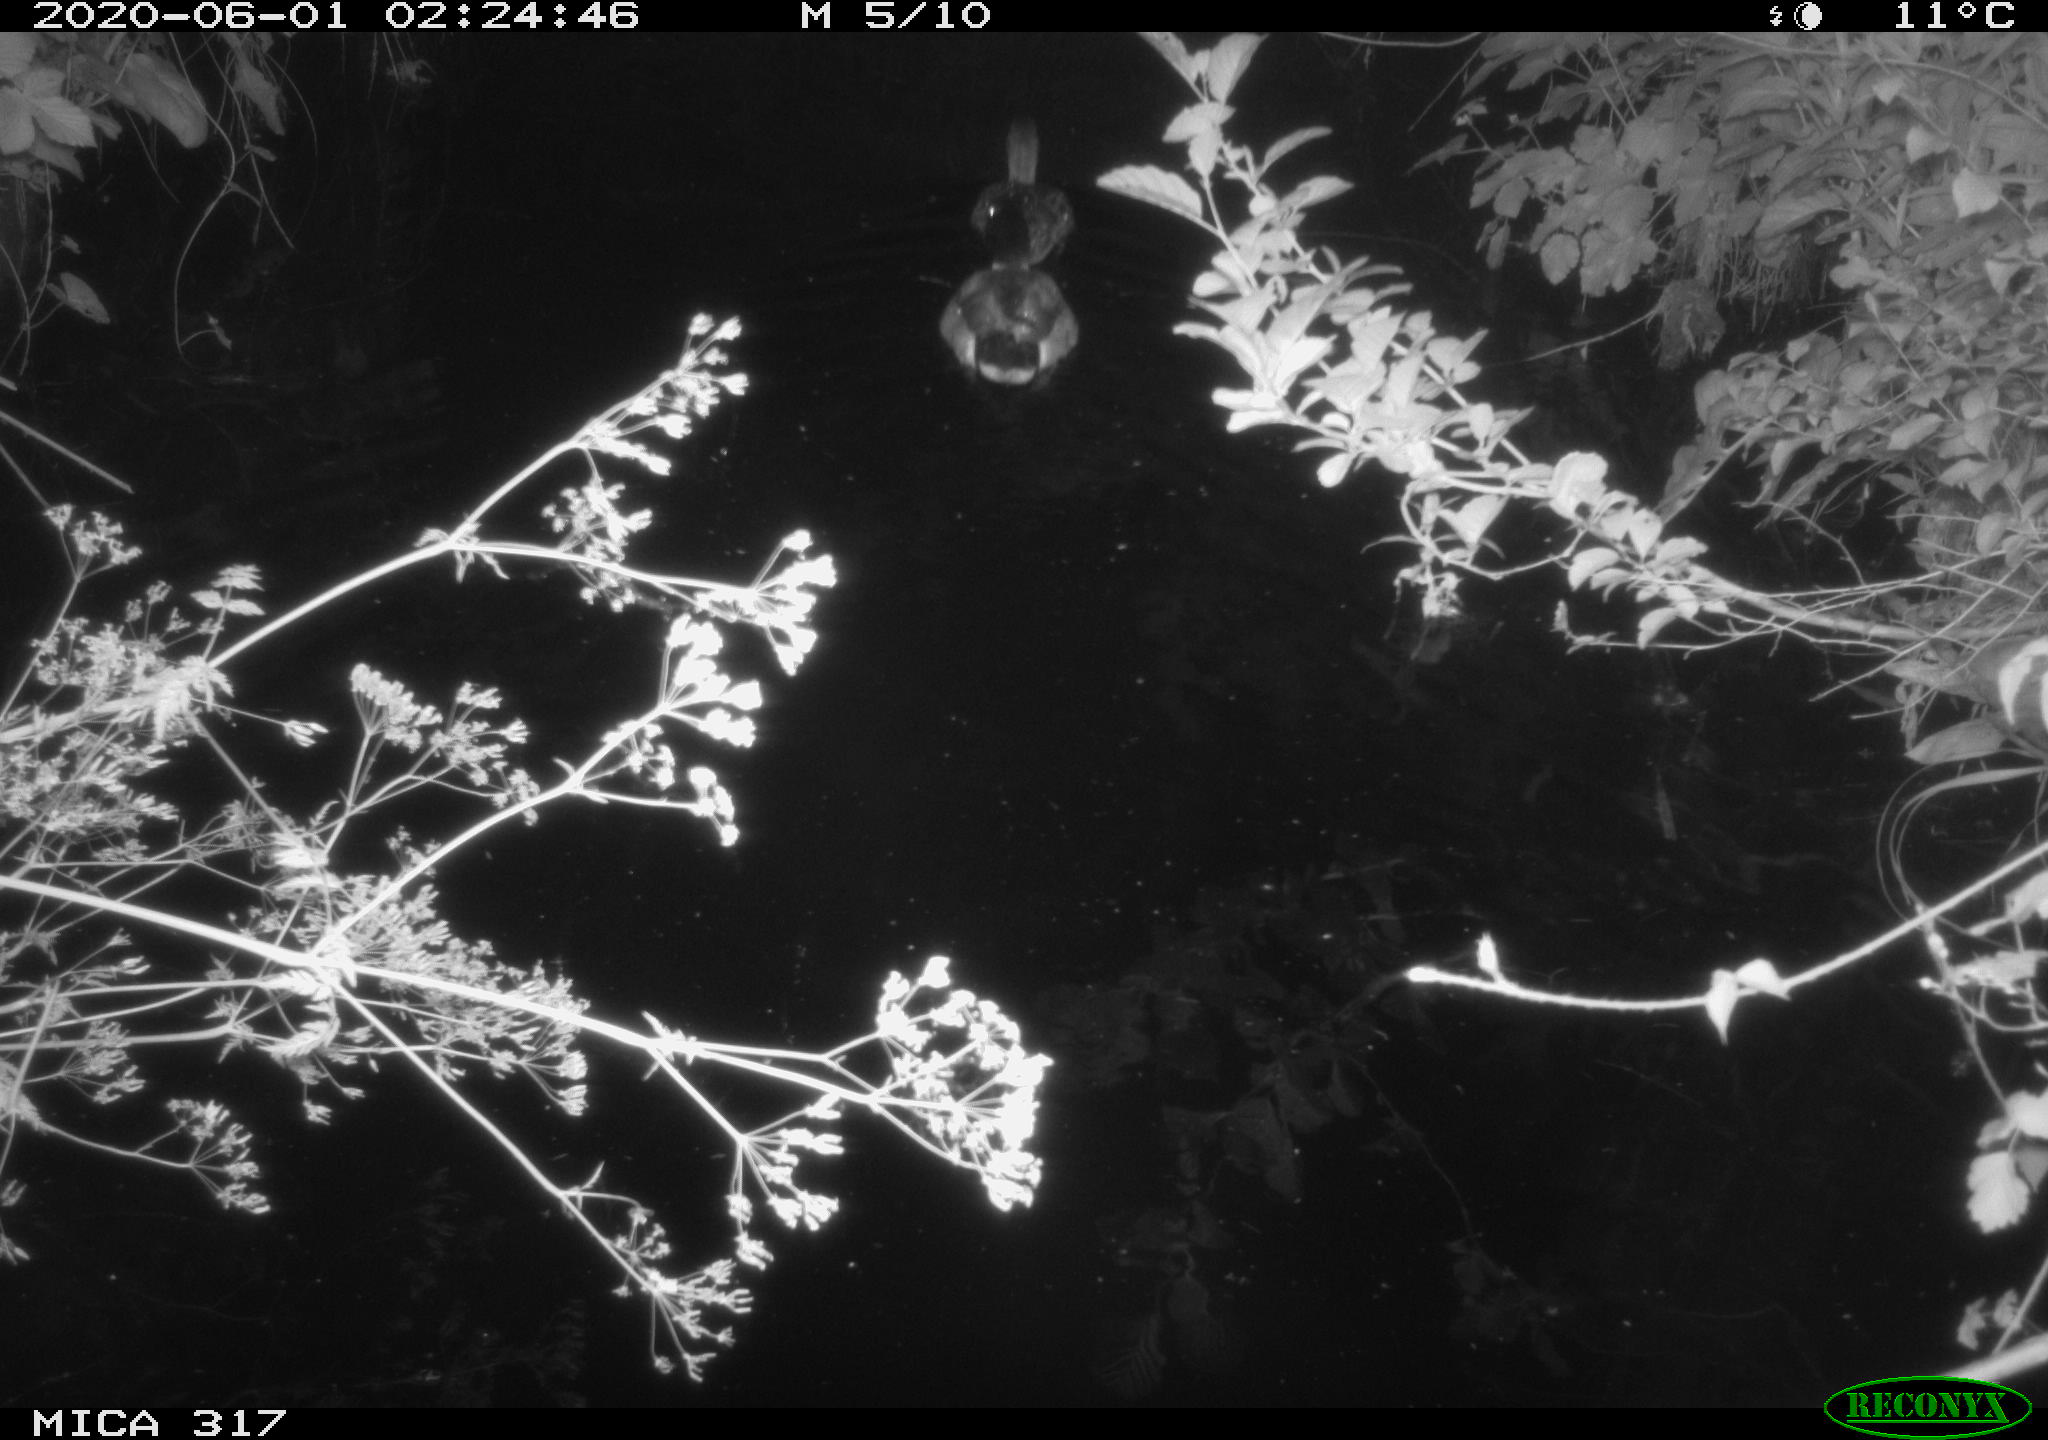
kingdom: Animalia
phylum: Chordata
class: Aves
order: Anseriformes
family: Anatidae
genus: Anas
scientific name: Anas platyrhynchos
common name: Mallard
